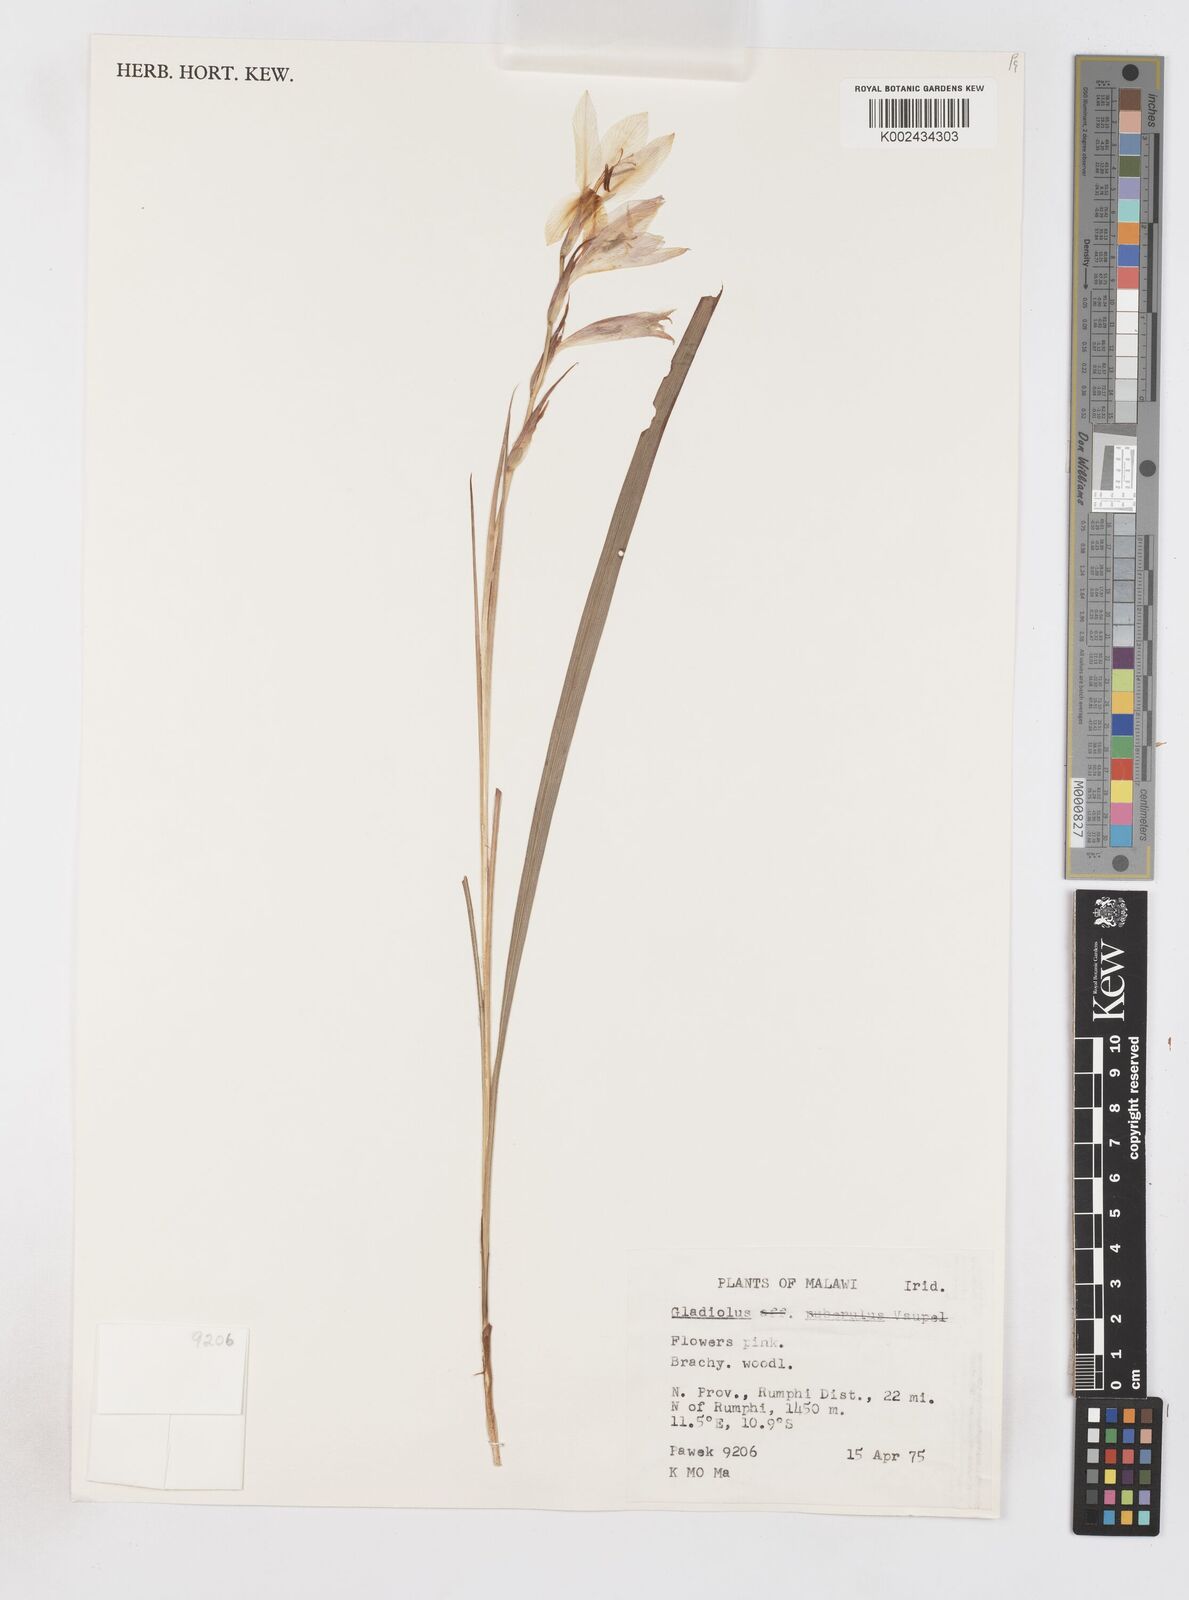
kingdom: Plantae
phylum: Tracheophyta
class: Liliopsida
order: Asparagales
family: Iridaceae
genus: Gladiolus
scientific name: Gladiolus erectiflorus
